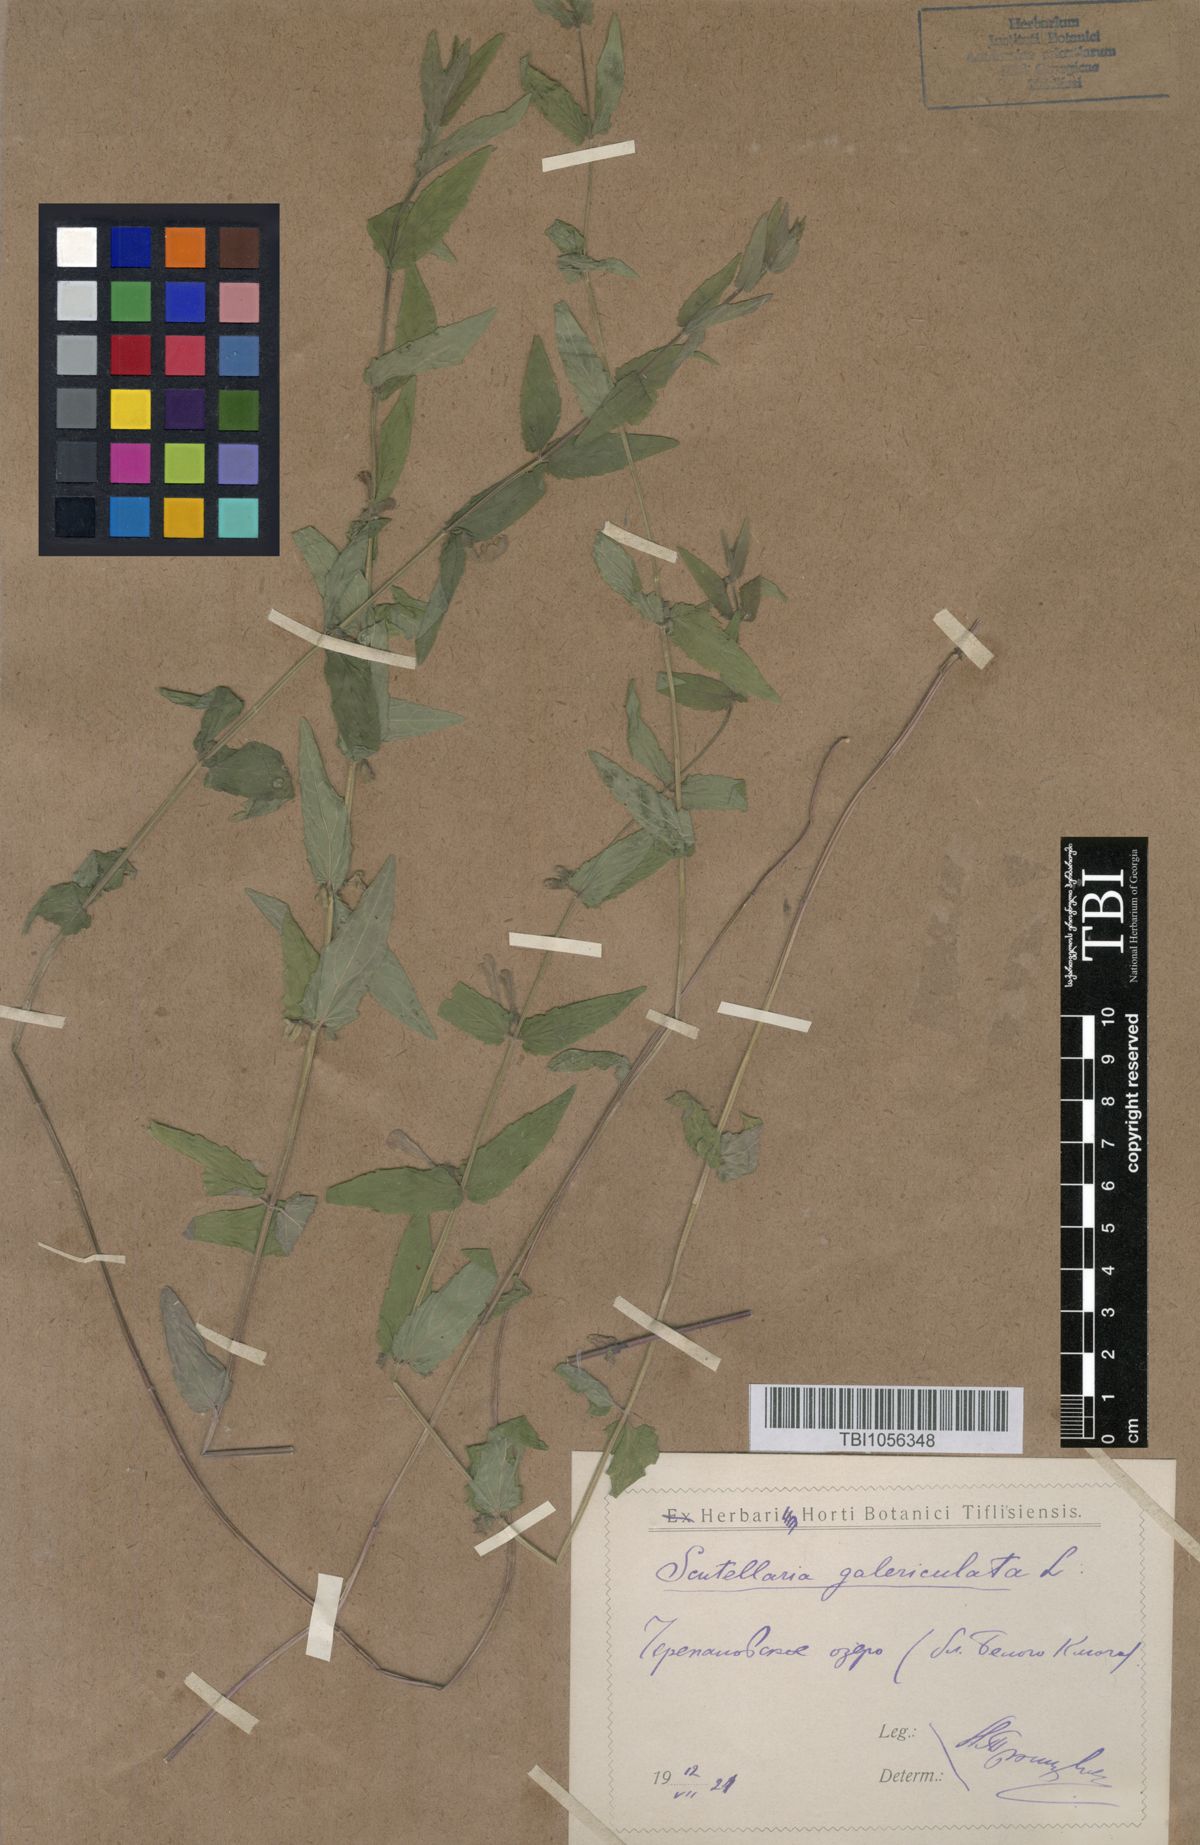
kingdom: Plantae
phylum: Tracheophyta
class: Magnoliopsida
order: Lamiales
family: Lamiaceae
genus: Scutellaria
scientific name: Scutellaria galericulata
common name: Skullcap
